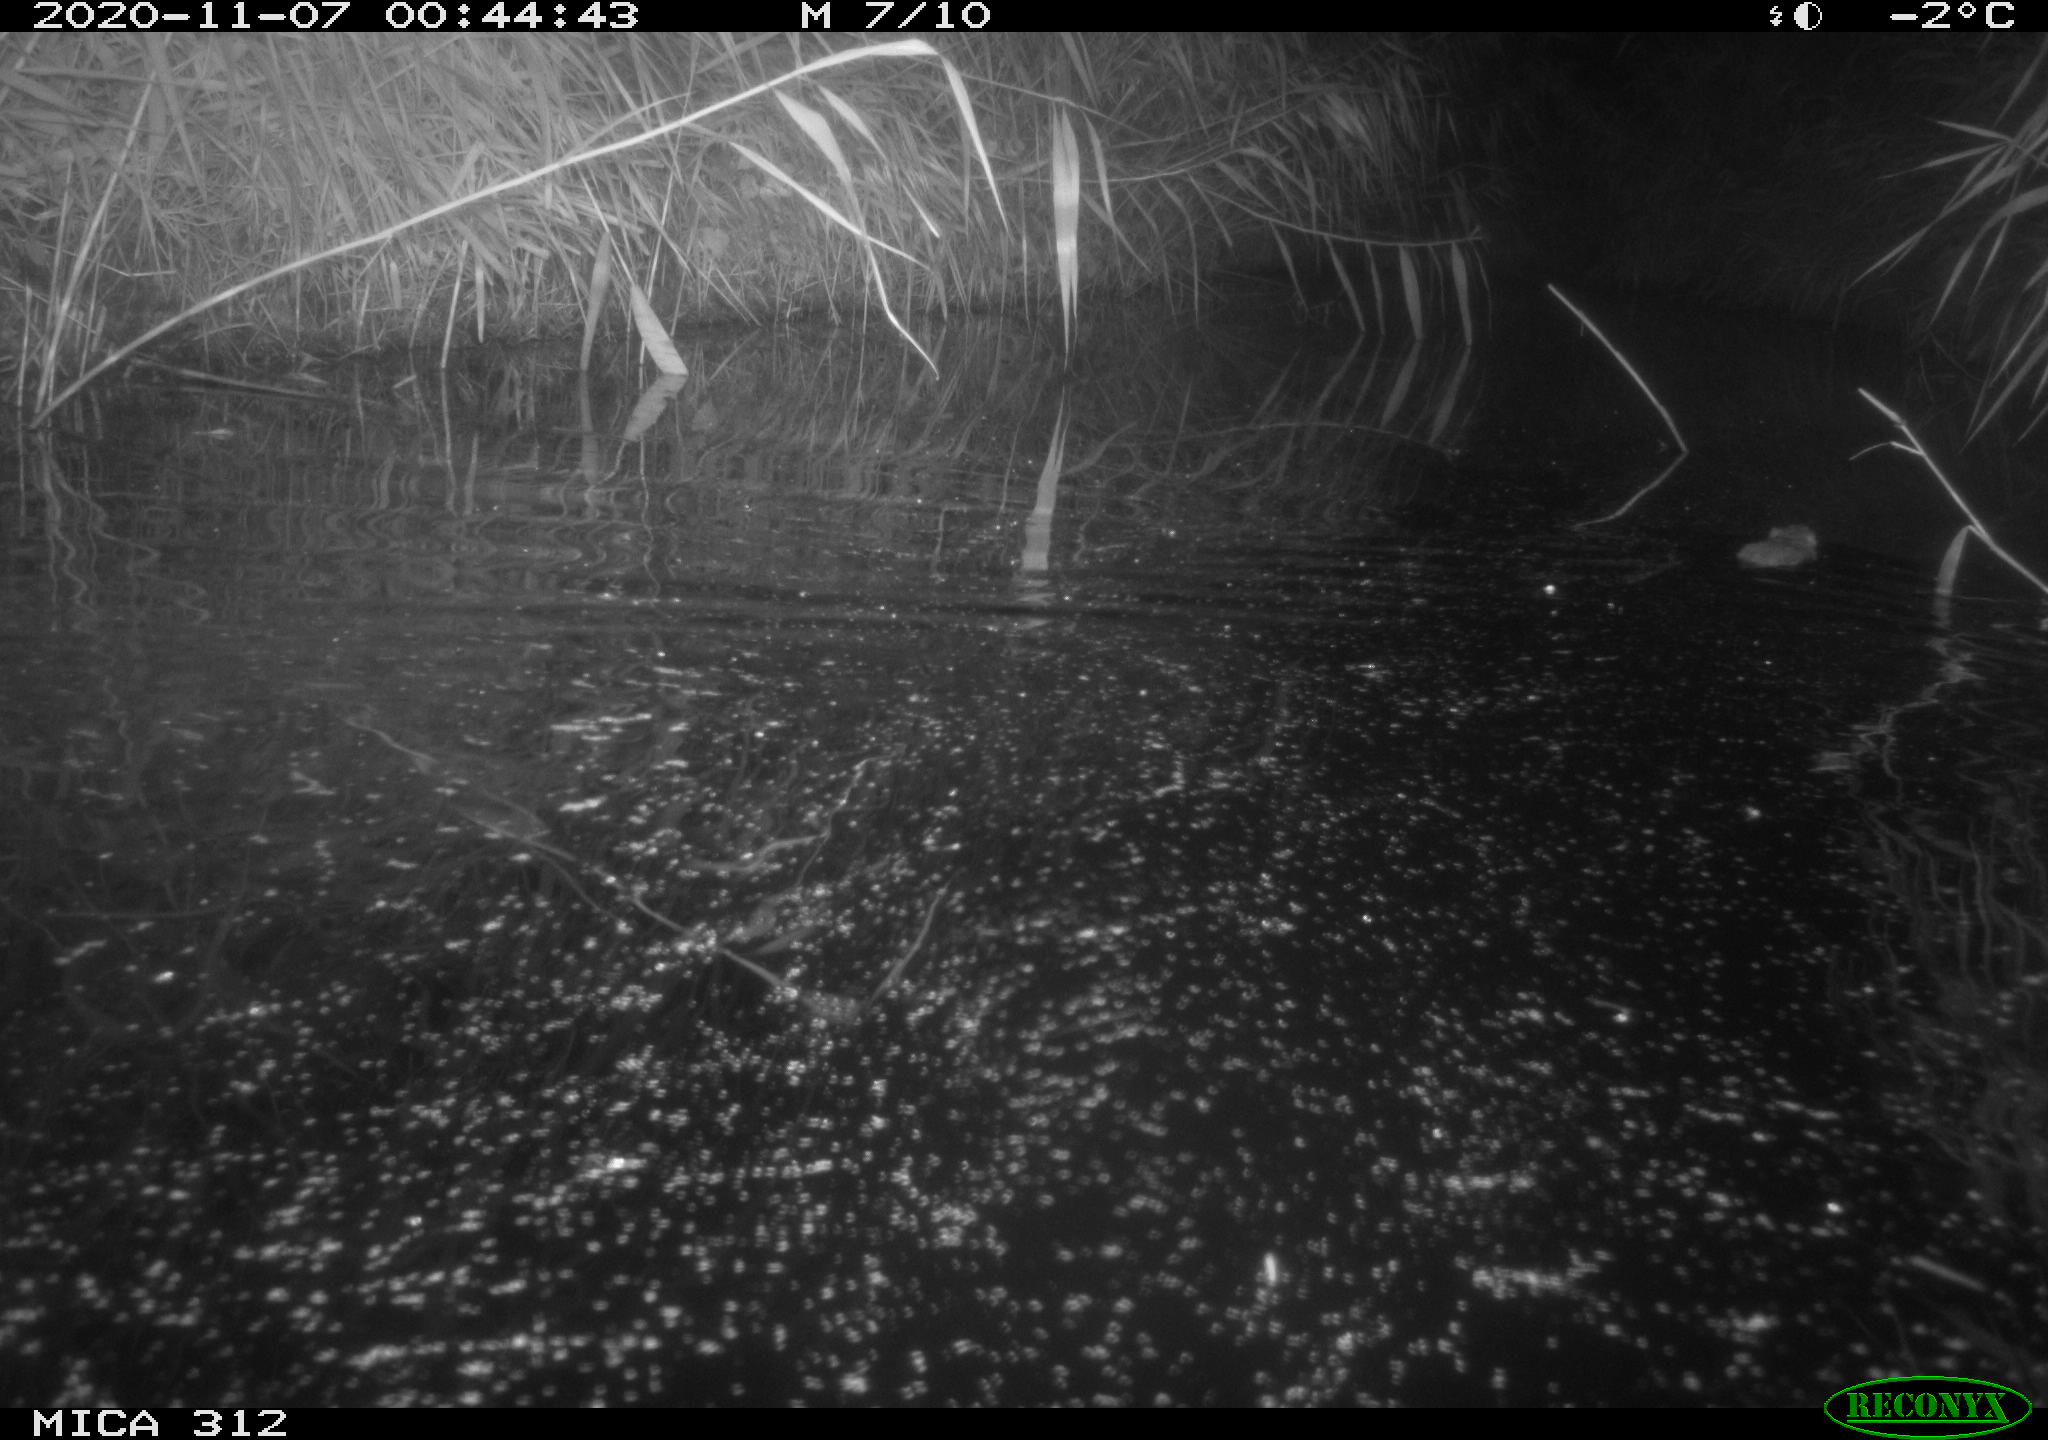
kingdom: Animalia
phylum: Chordata
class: Mammalia
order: Rodentia
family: Muridae
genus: Rattus
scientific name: Rattus norvegicus
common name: Brown rat
